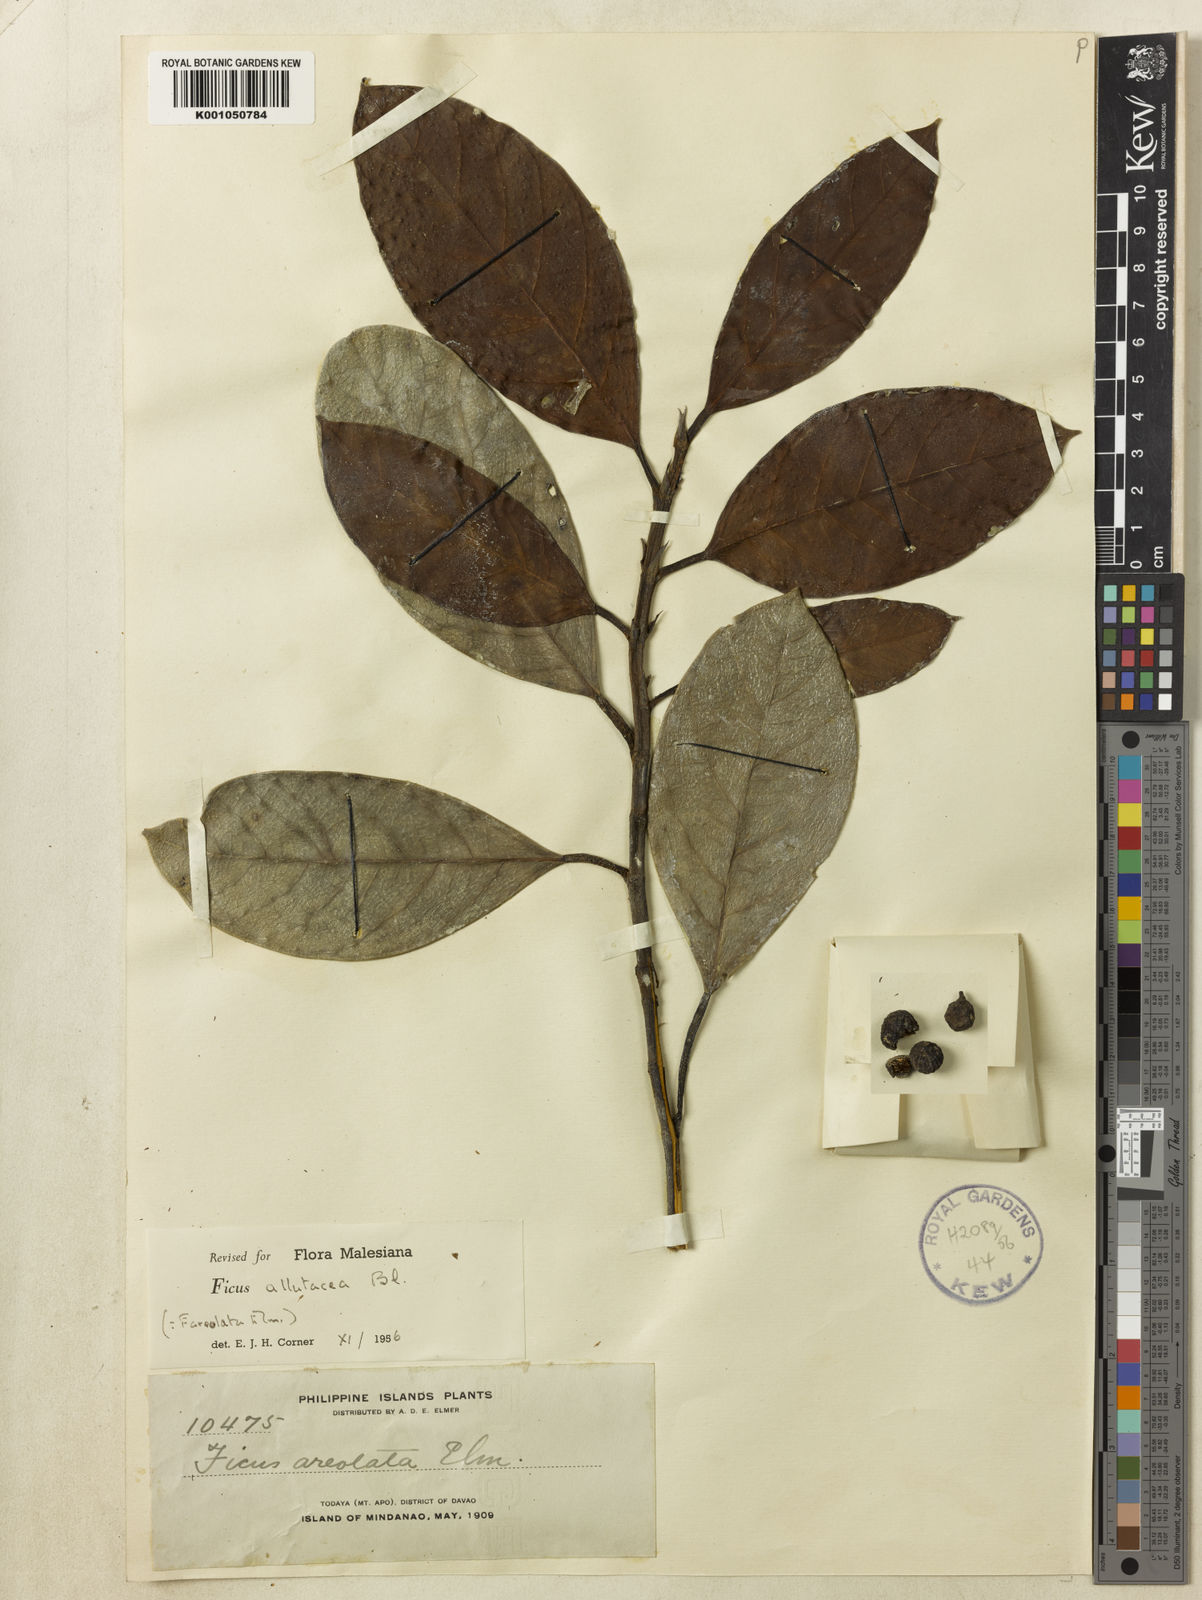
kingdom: Plantae
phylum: Tracheophyta
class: Magnoliopsida
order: Rosales
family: Moraceae
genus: Ficus
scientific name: Ficus allutacea
